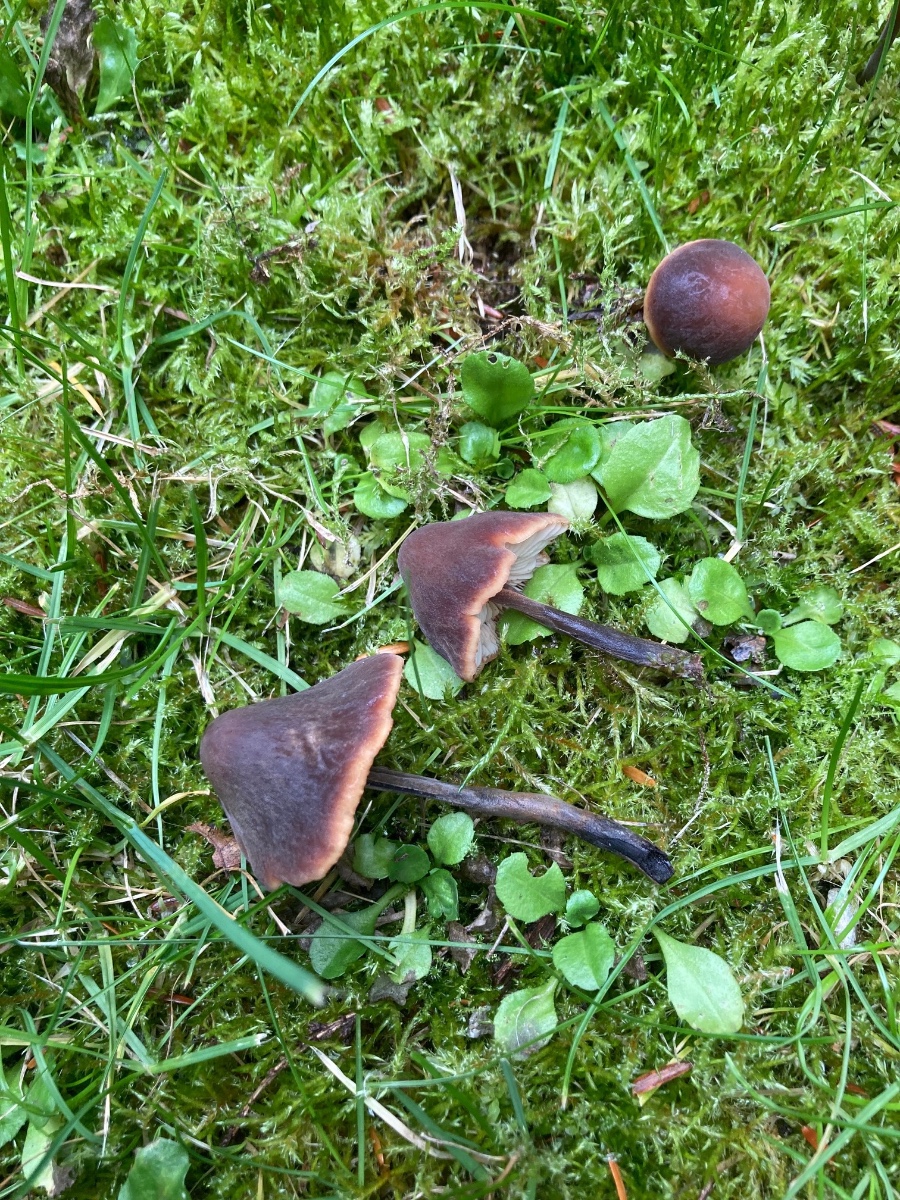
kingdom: Fungi
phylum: Basidiomycota
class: Agaricomycetes
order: Agaricales
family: Macrocystidiaceae
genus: Macrocystidia
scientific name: Macrocystidia cucumis
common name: agurkehat
